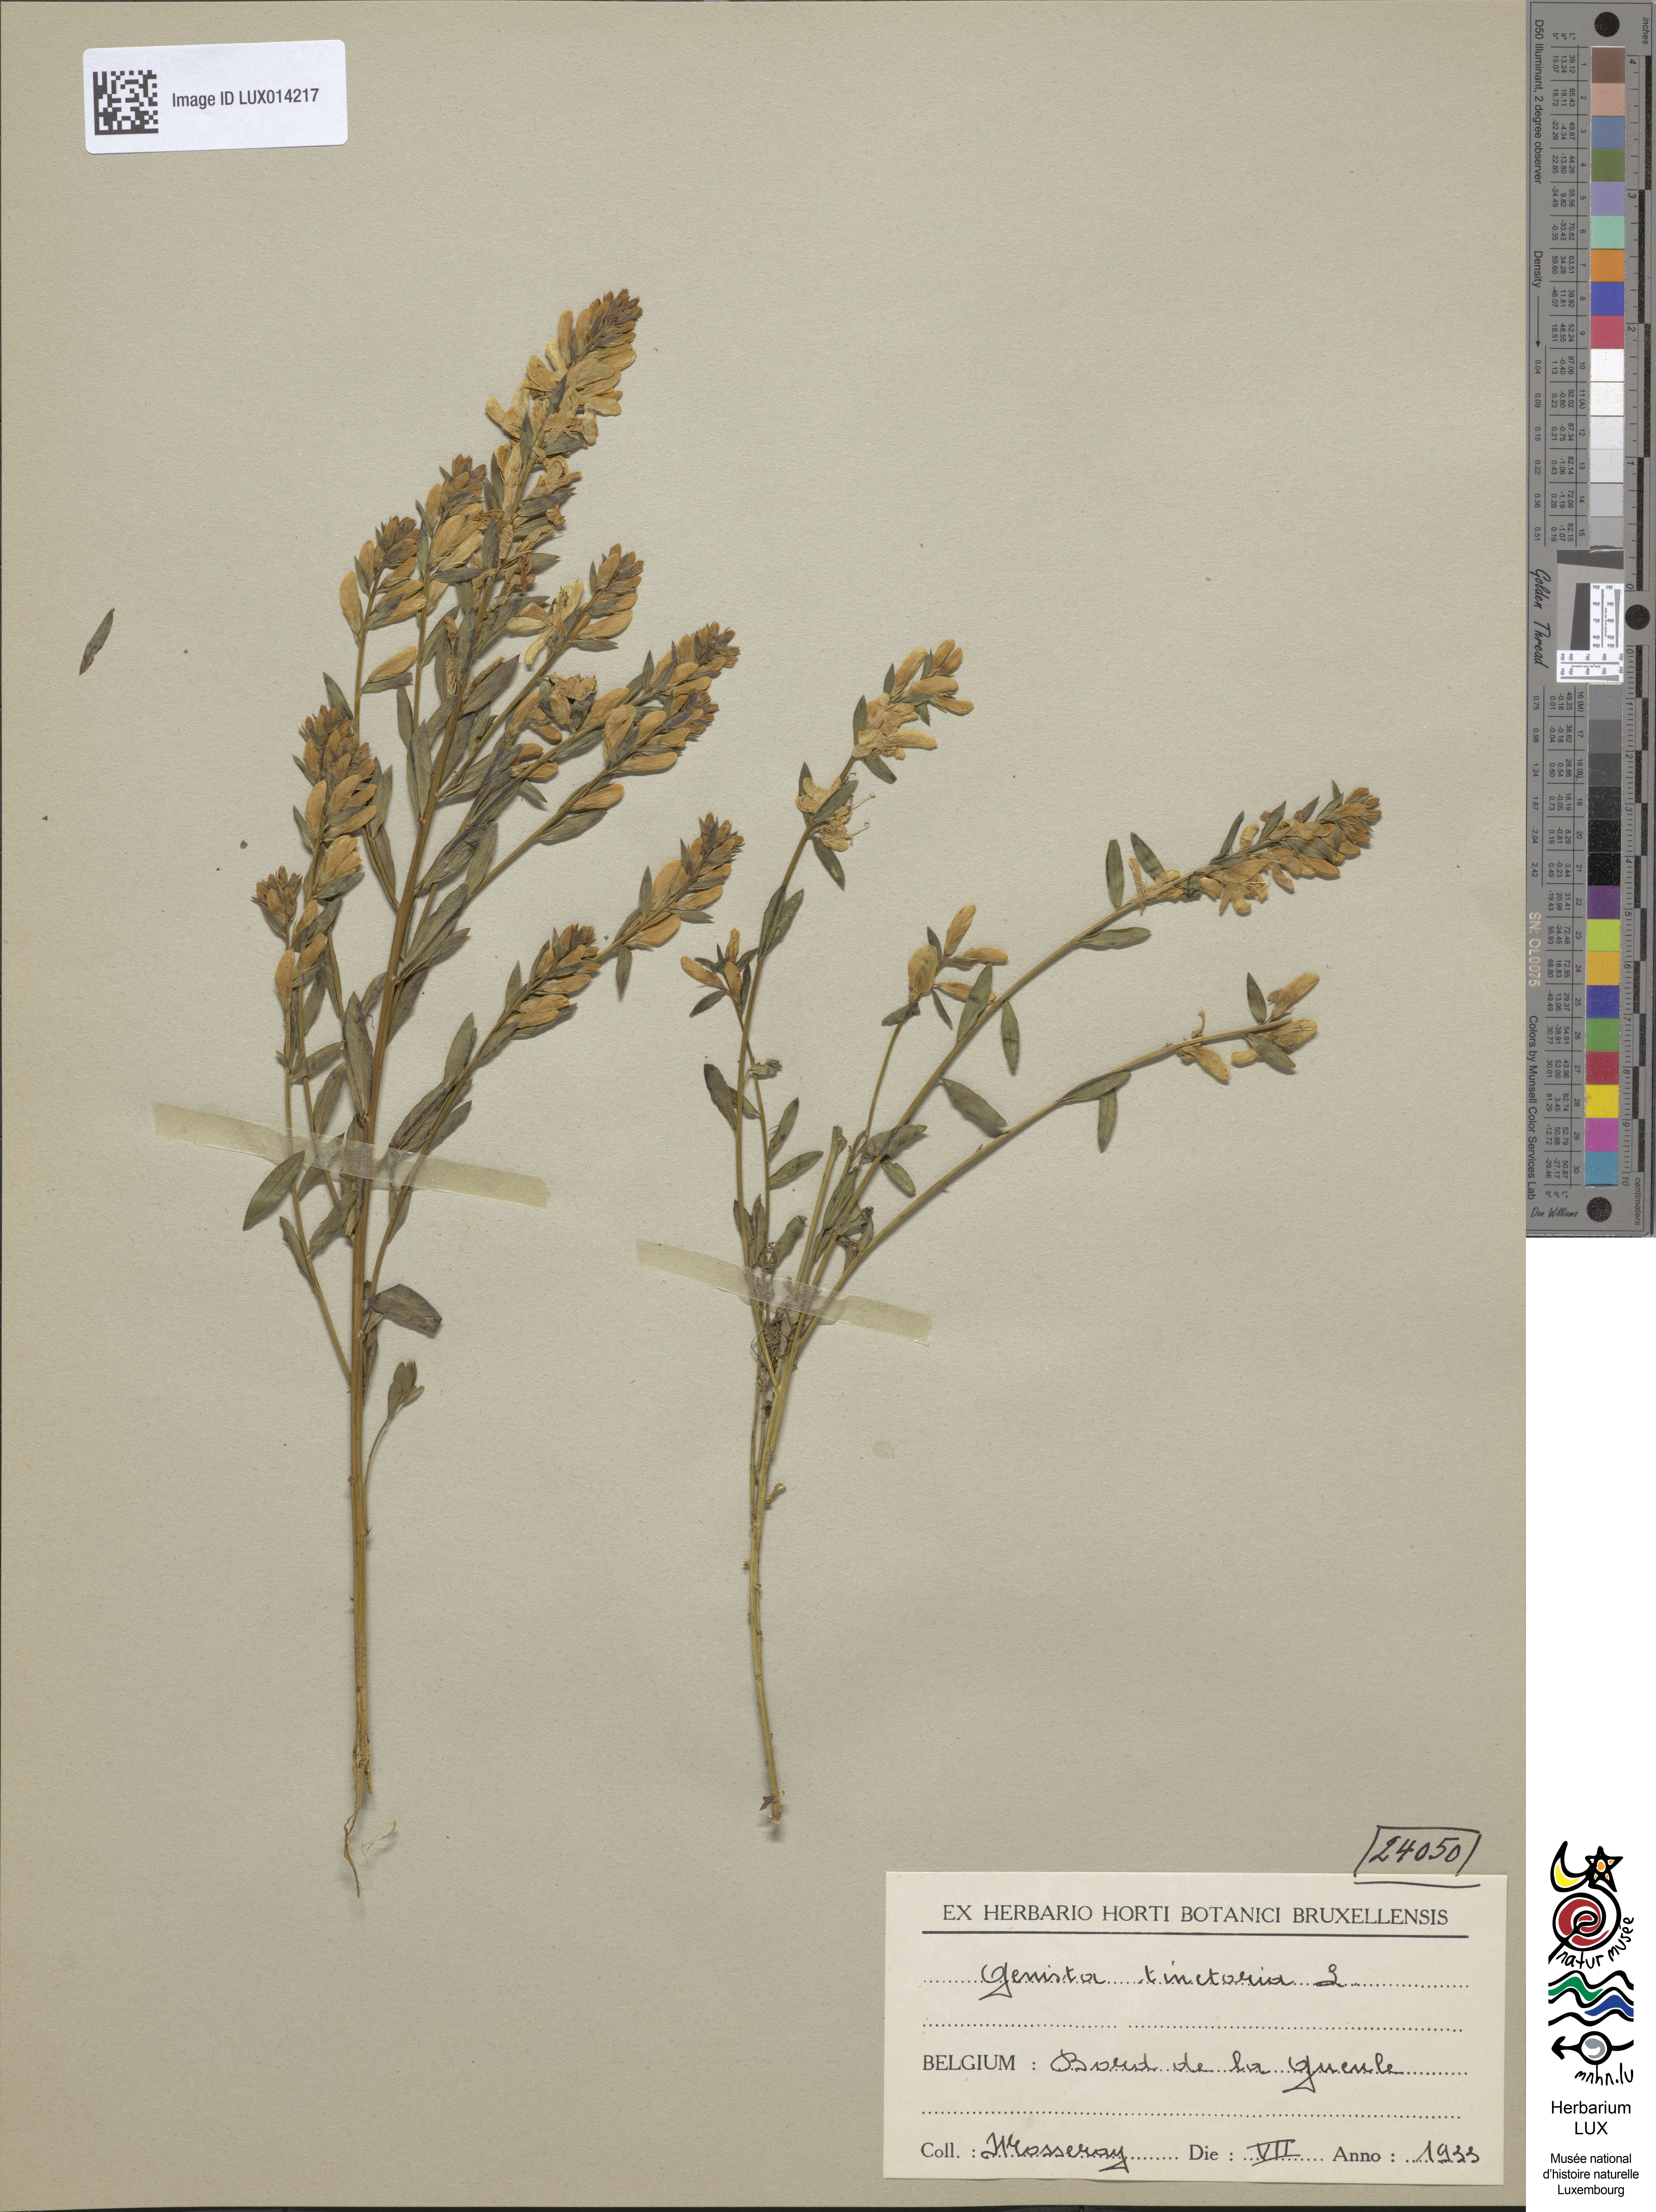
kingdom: Plantae
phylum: Tracheophyta
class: Magnoliopsida
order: Fabales
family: Fabaceae
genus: Genista
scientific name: Genista tinctoria
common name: Dyer's greenweed
